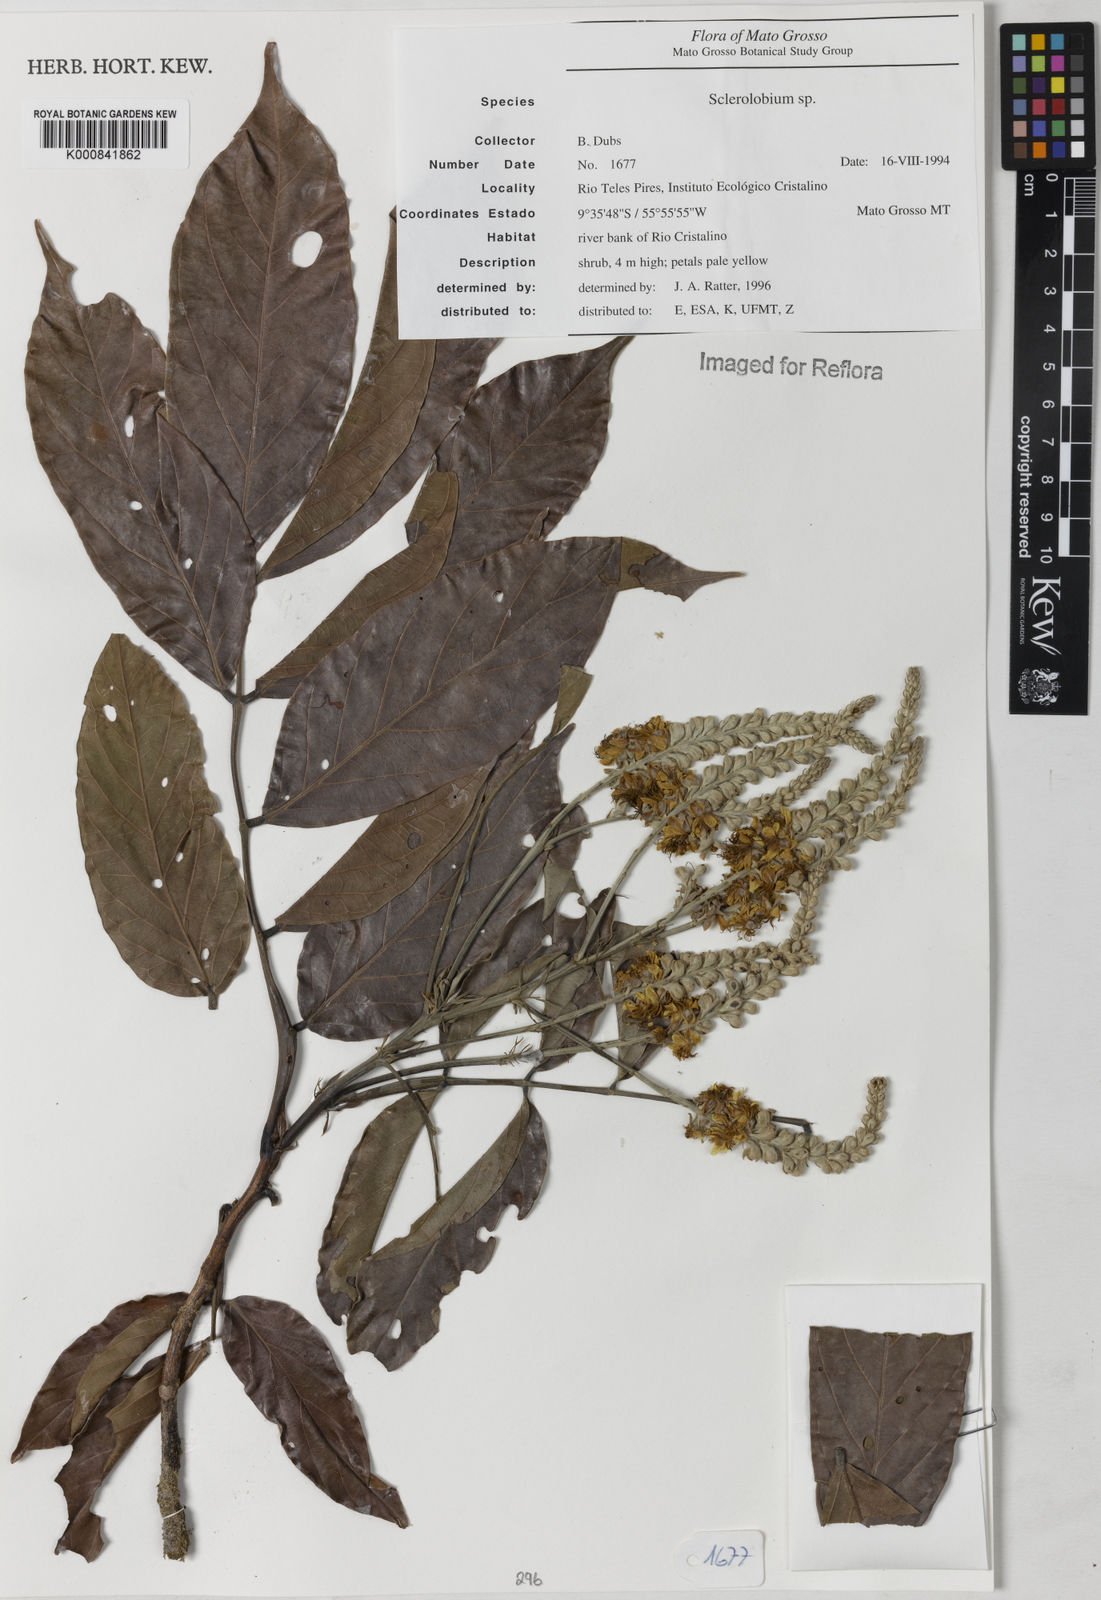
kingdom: Plantae
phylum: Tracheophyta
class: Magnoliopsida
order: Fabales
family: Fabaceae
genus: Tachigali
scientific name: Tachigali
